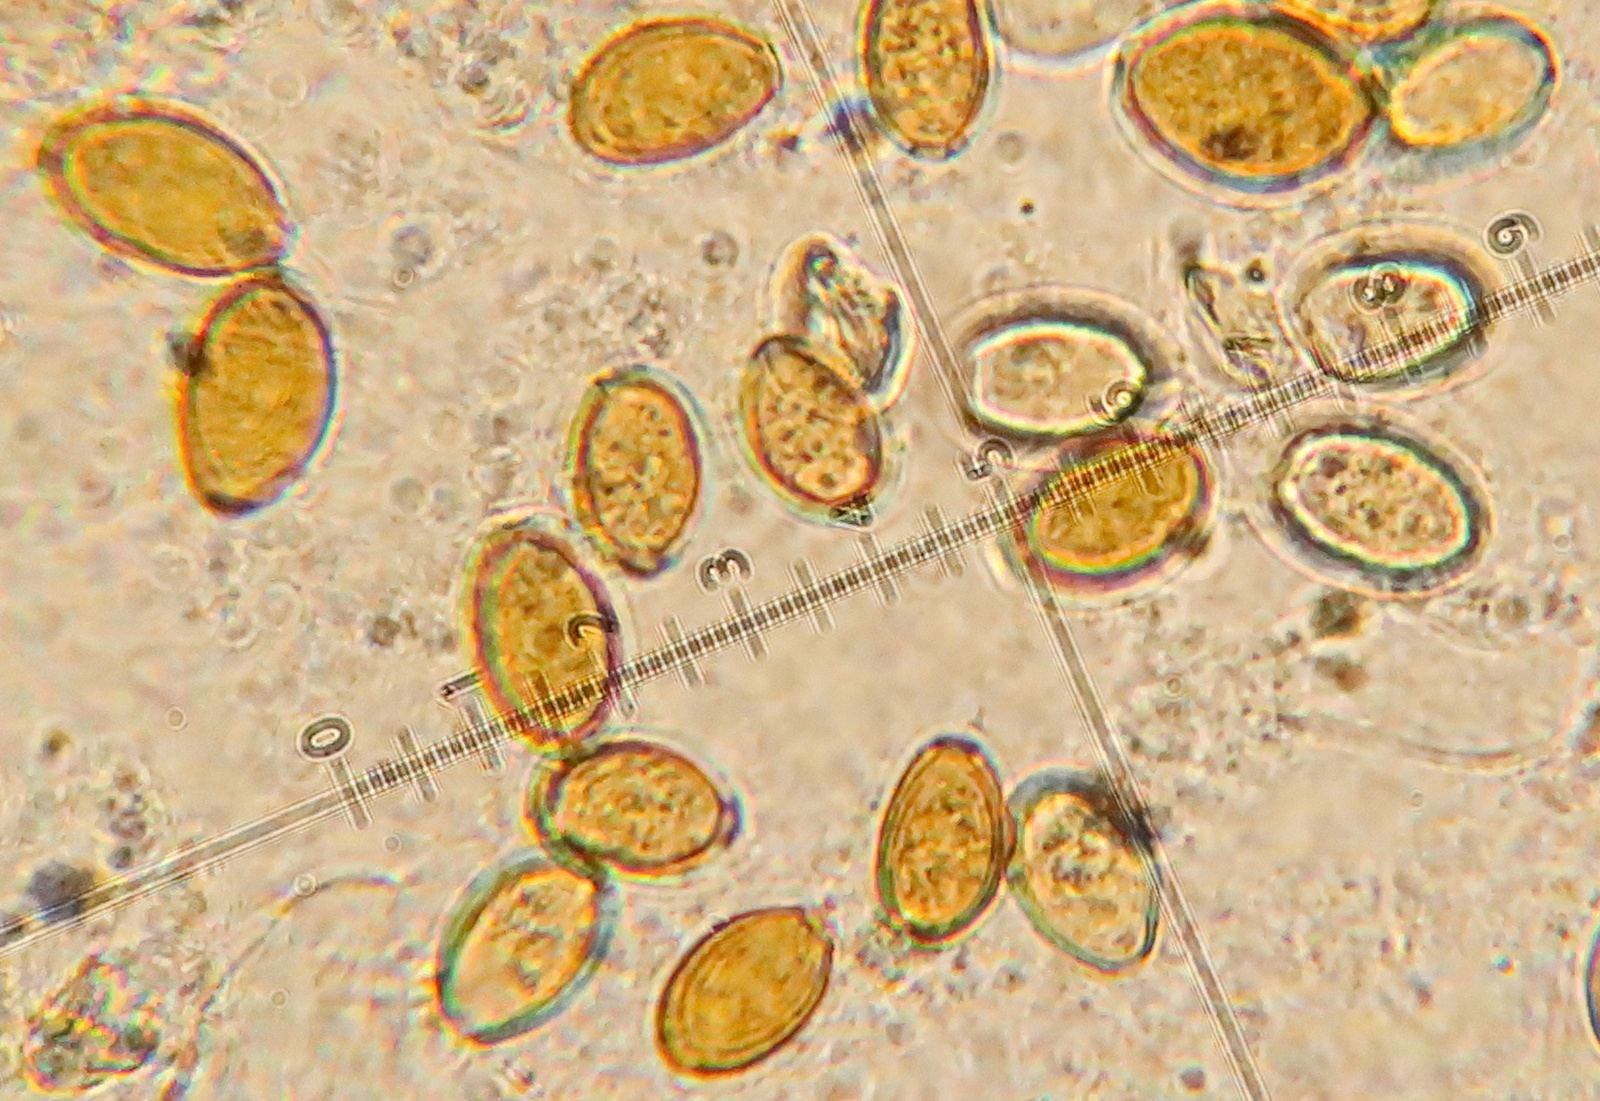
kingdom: Fungi
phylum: Basidiomycota
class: Agaricomycetes
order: Agaricales
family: Bolbitiaceae
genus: Conocybe
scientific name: Conocybe singeriana
